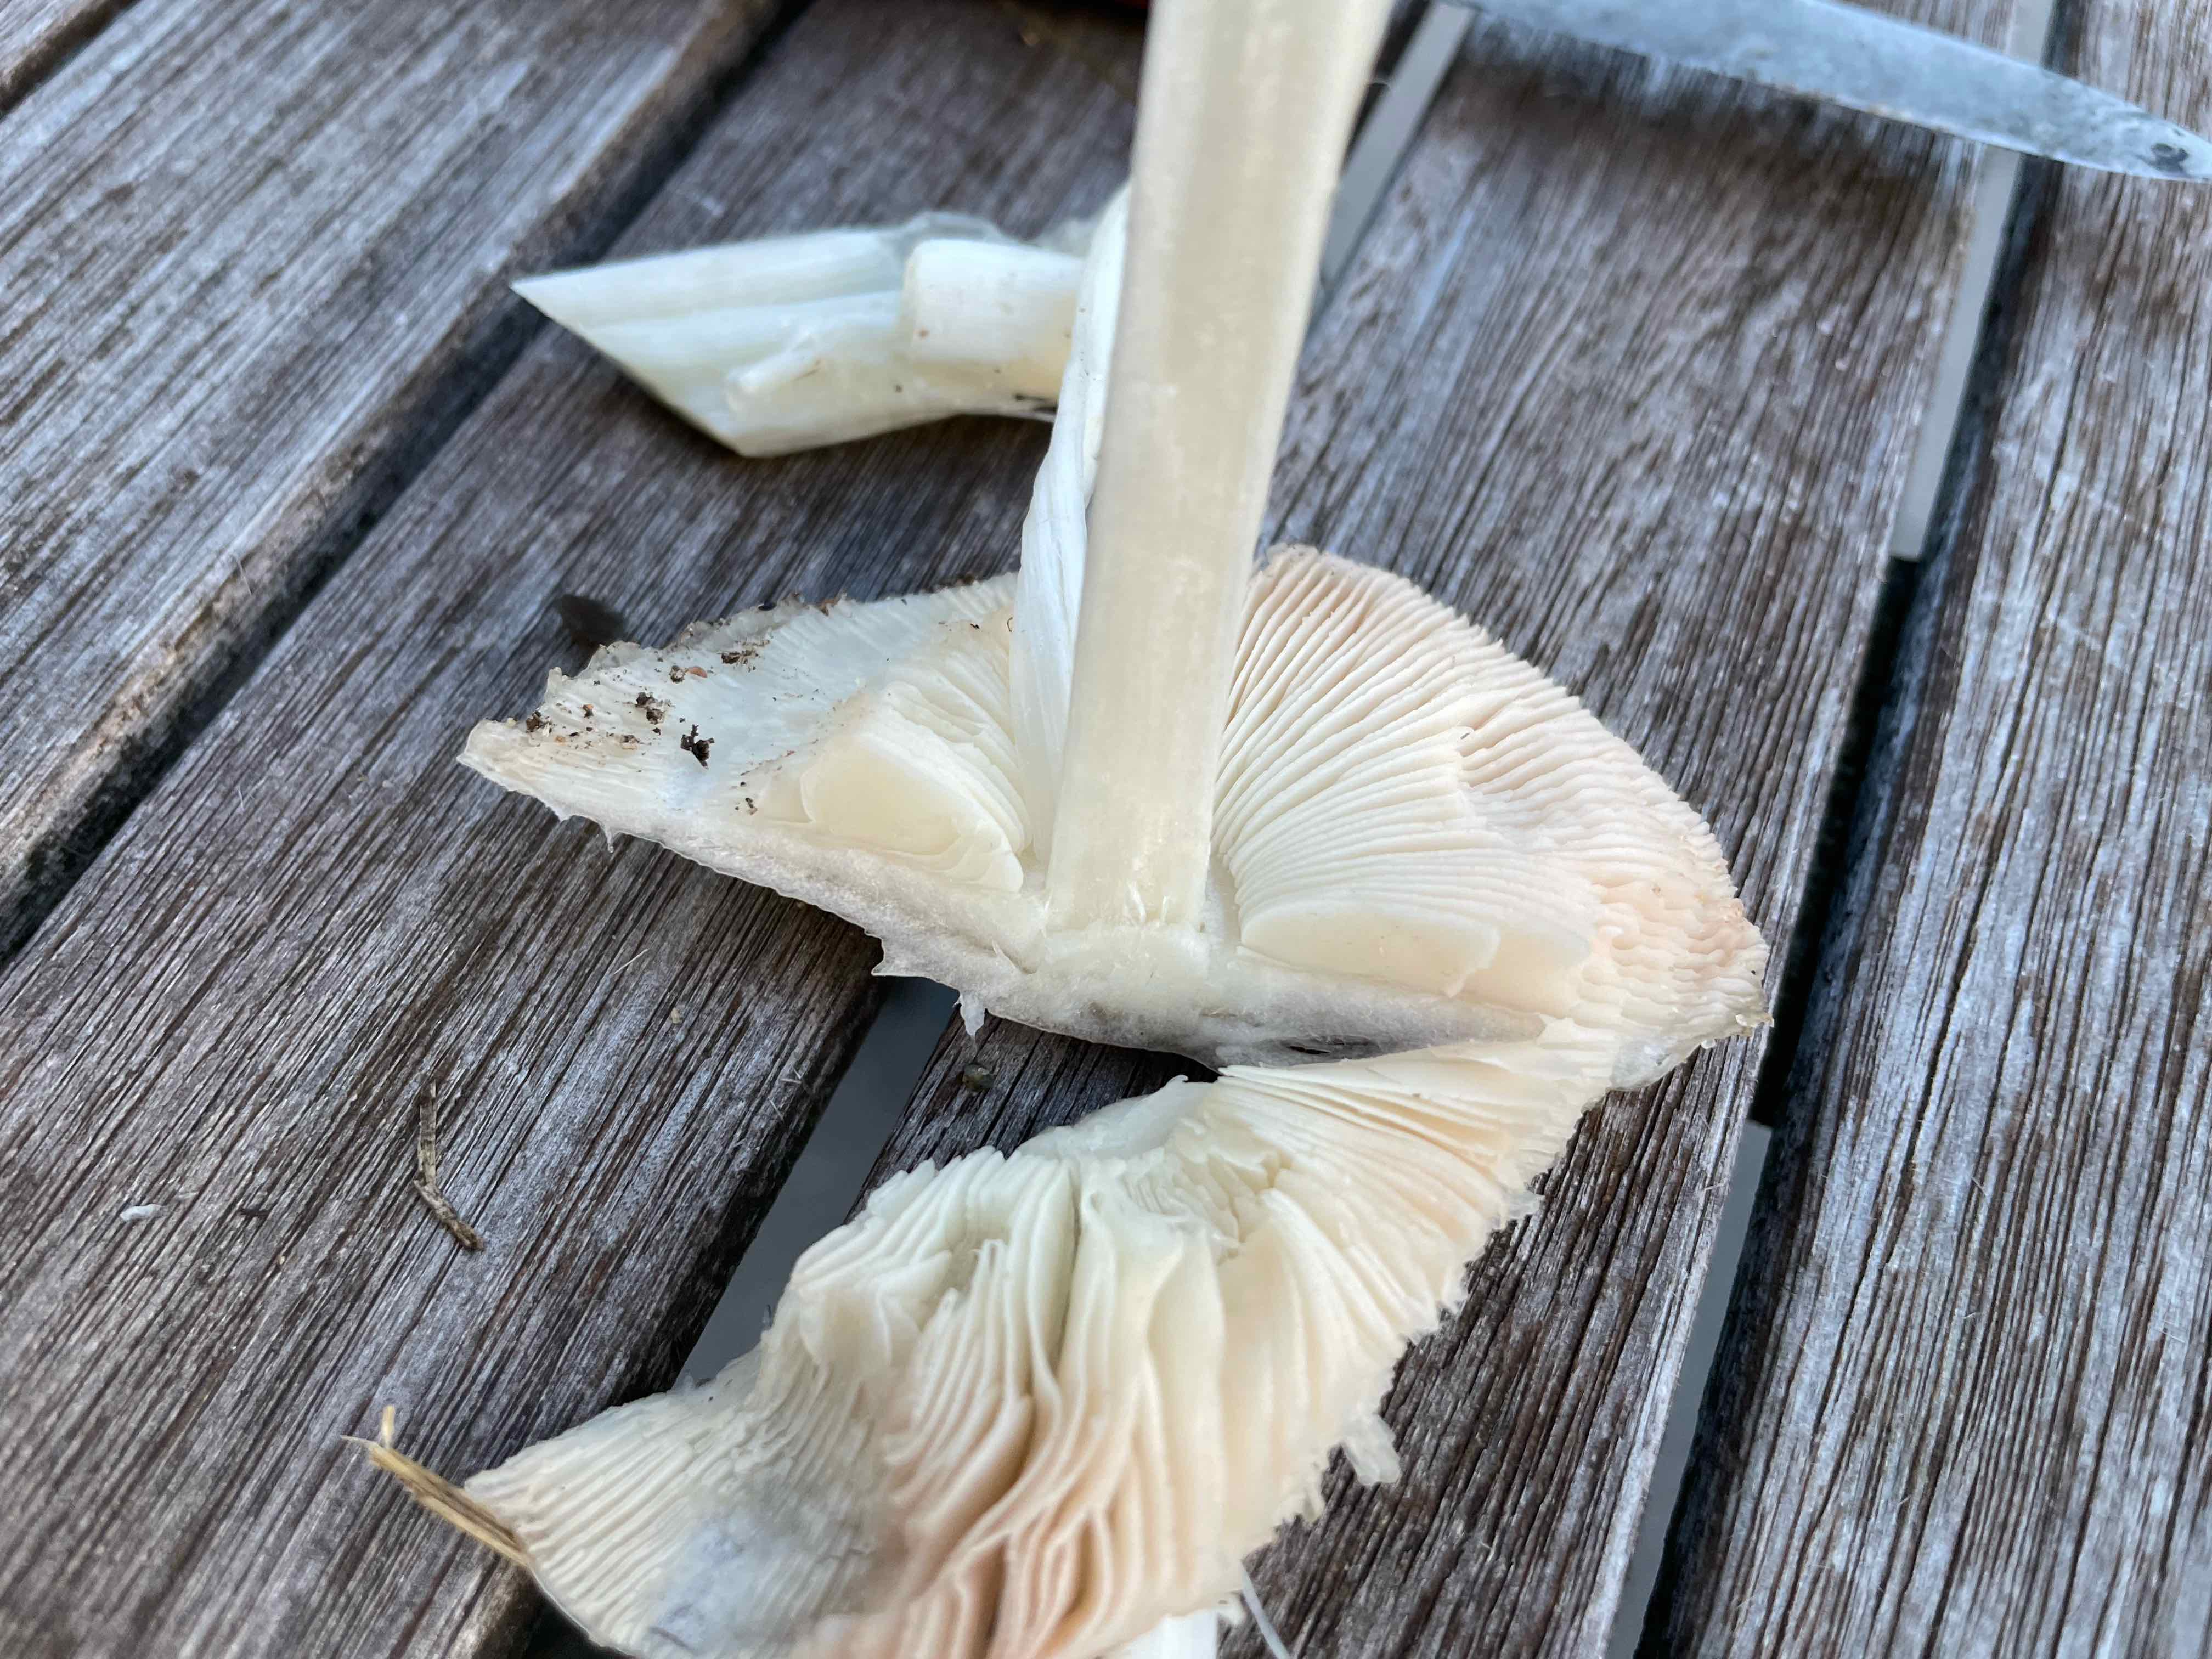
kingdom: Fungi
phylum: Basidiomycota
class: Agaricomycetes
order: Agaricales
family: Pluteaceae
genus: Volvopluteus
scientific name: Volvopluteus gloiocephalus
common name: høj posesvamp
